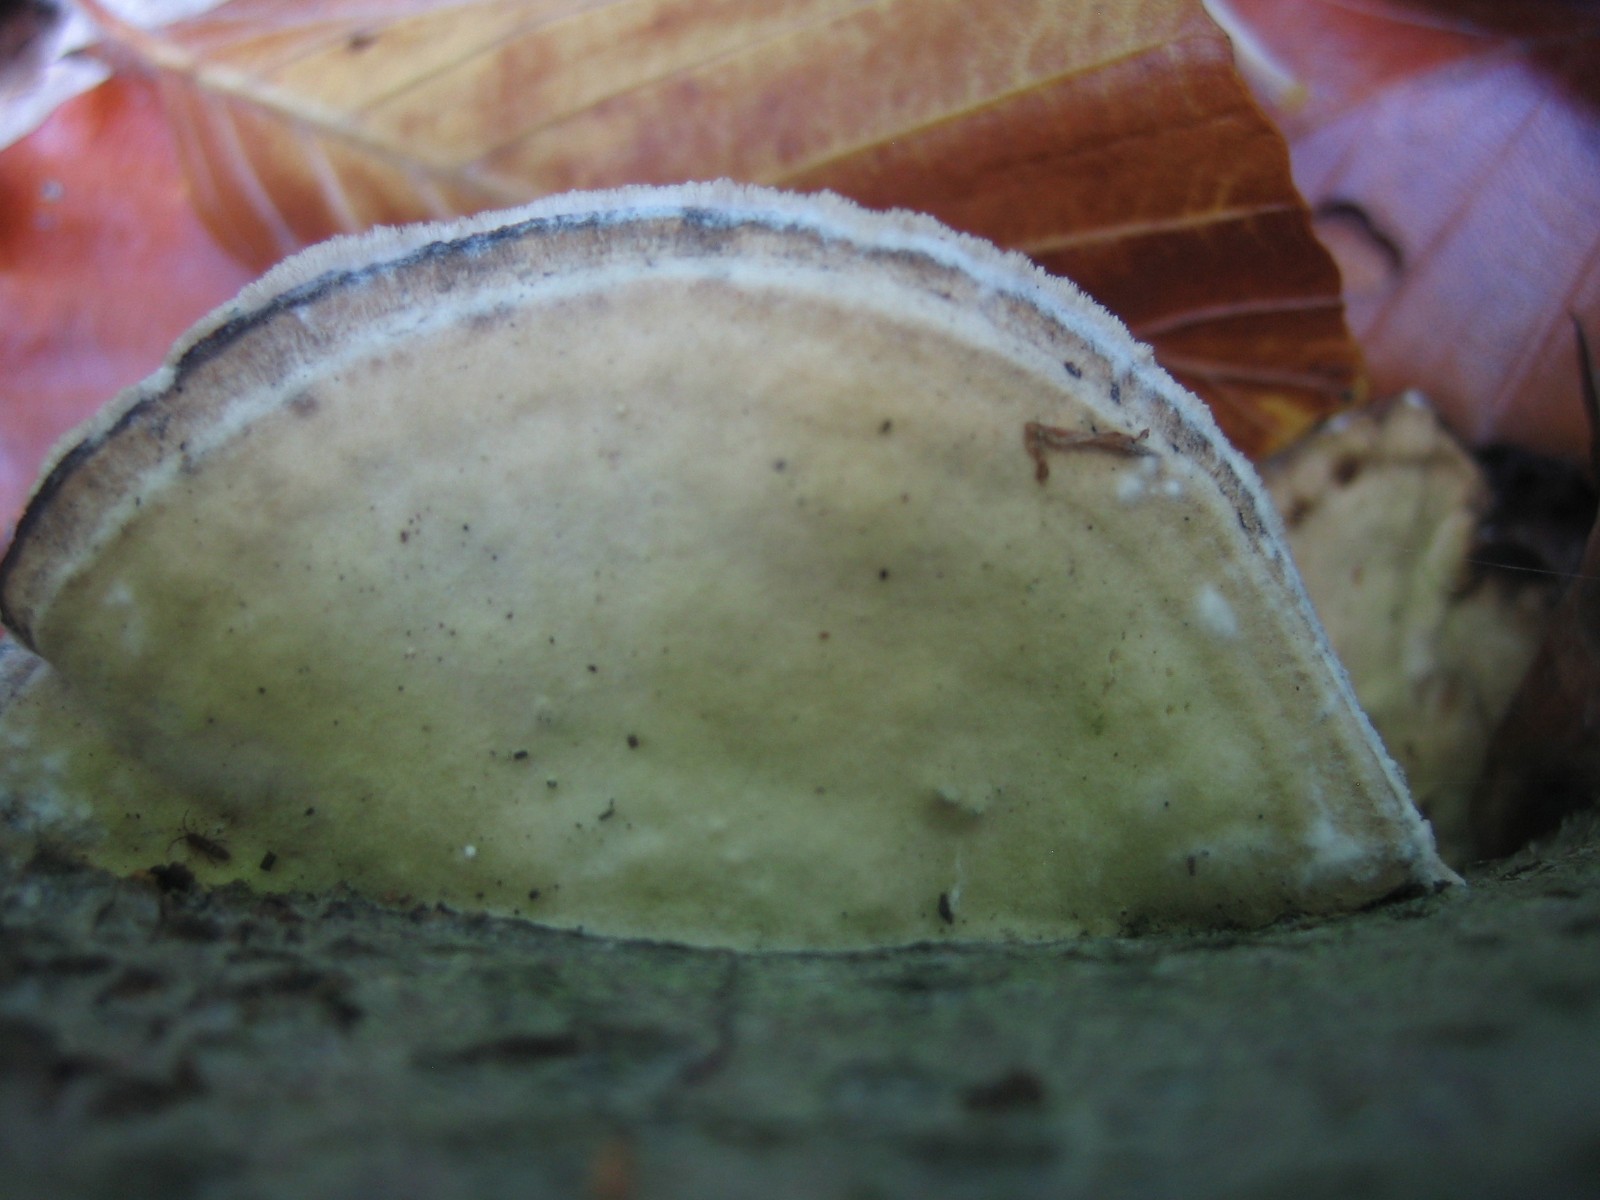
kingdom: Fungi
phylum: Basidiomycota
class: Agaricomycetes
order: Polyporales
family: Phanerochaetaceae
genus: Bjerkandera
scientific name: Bjerkandera adusta
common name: sveden sodporesvamp
